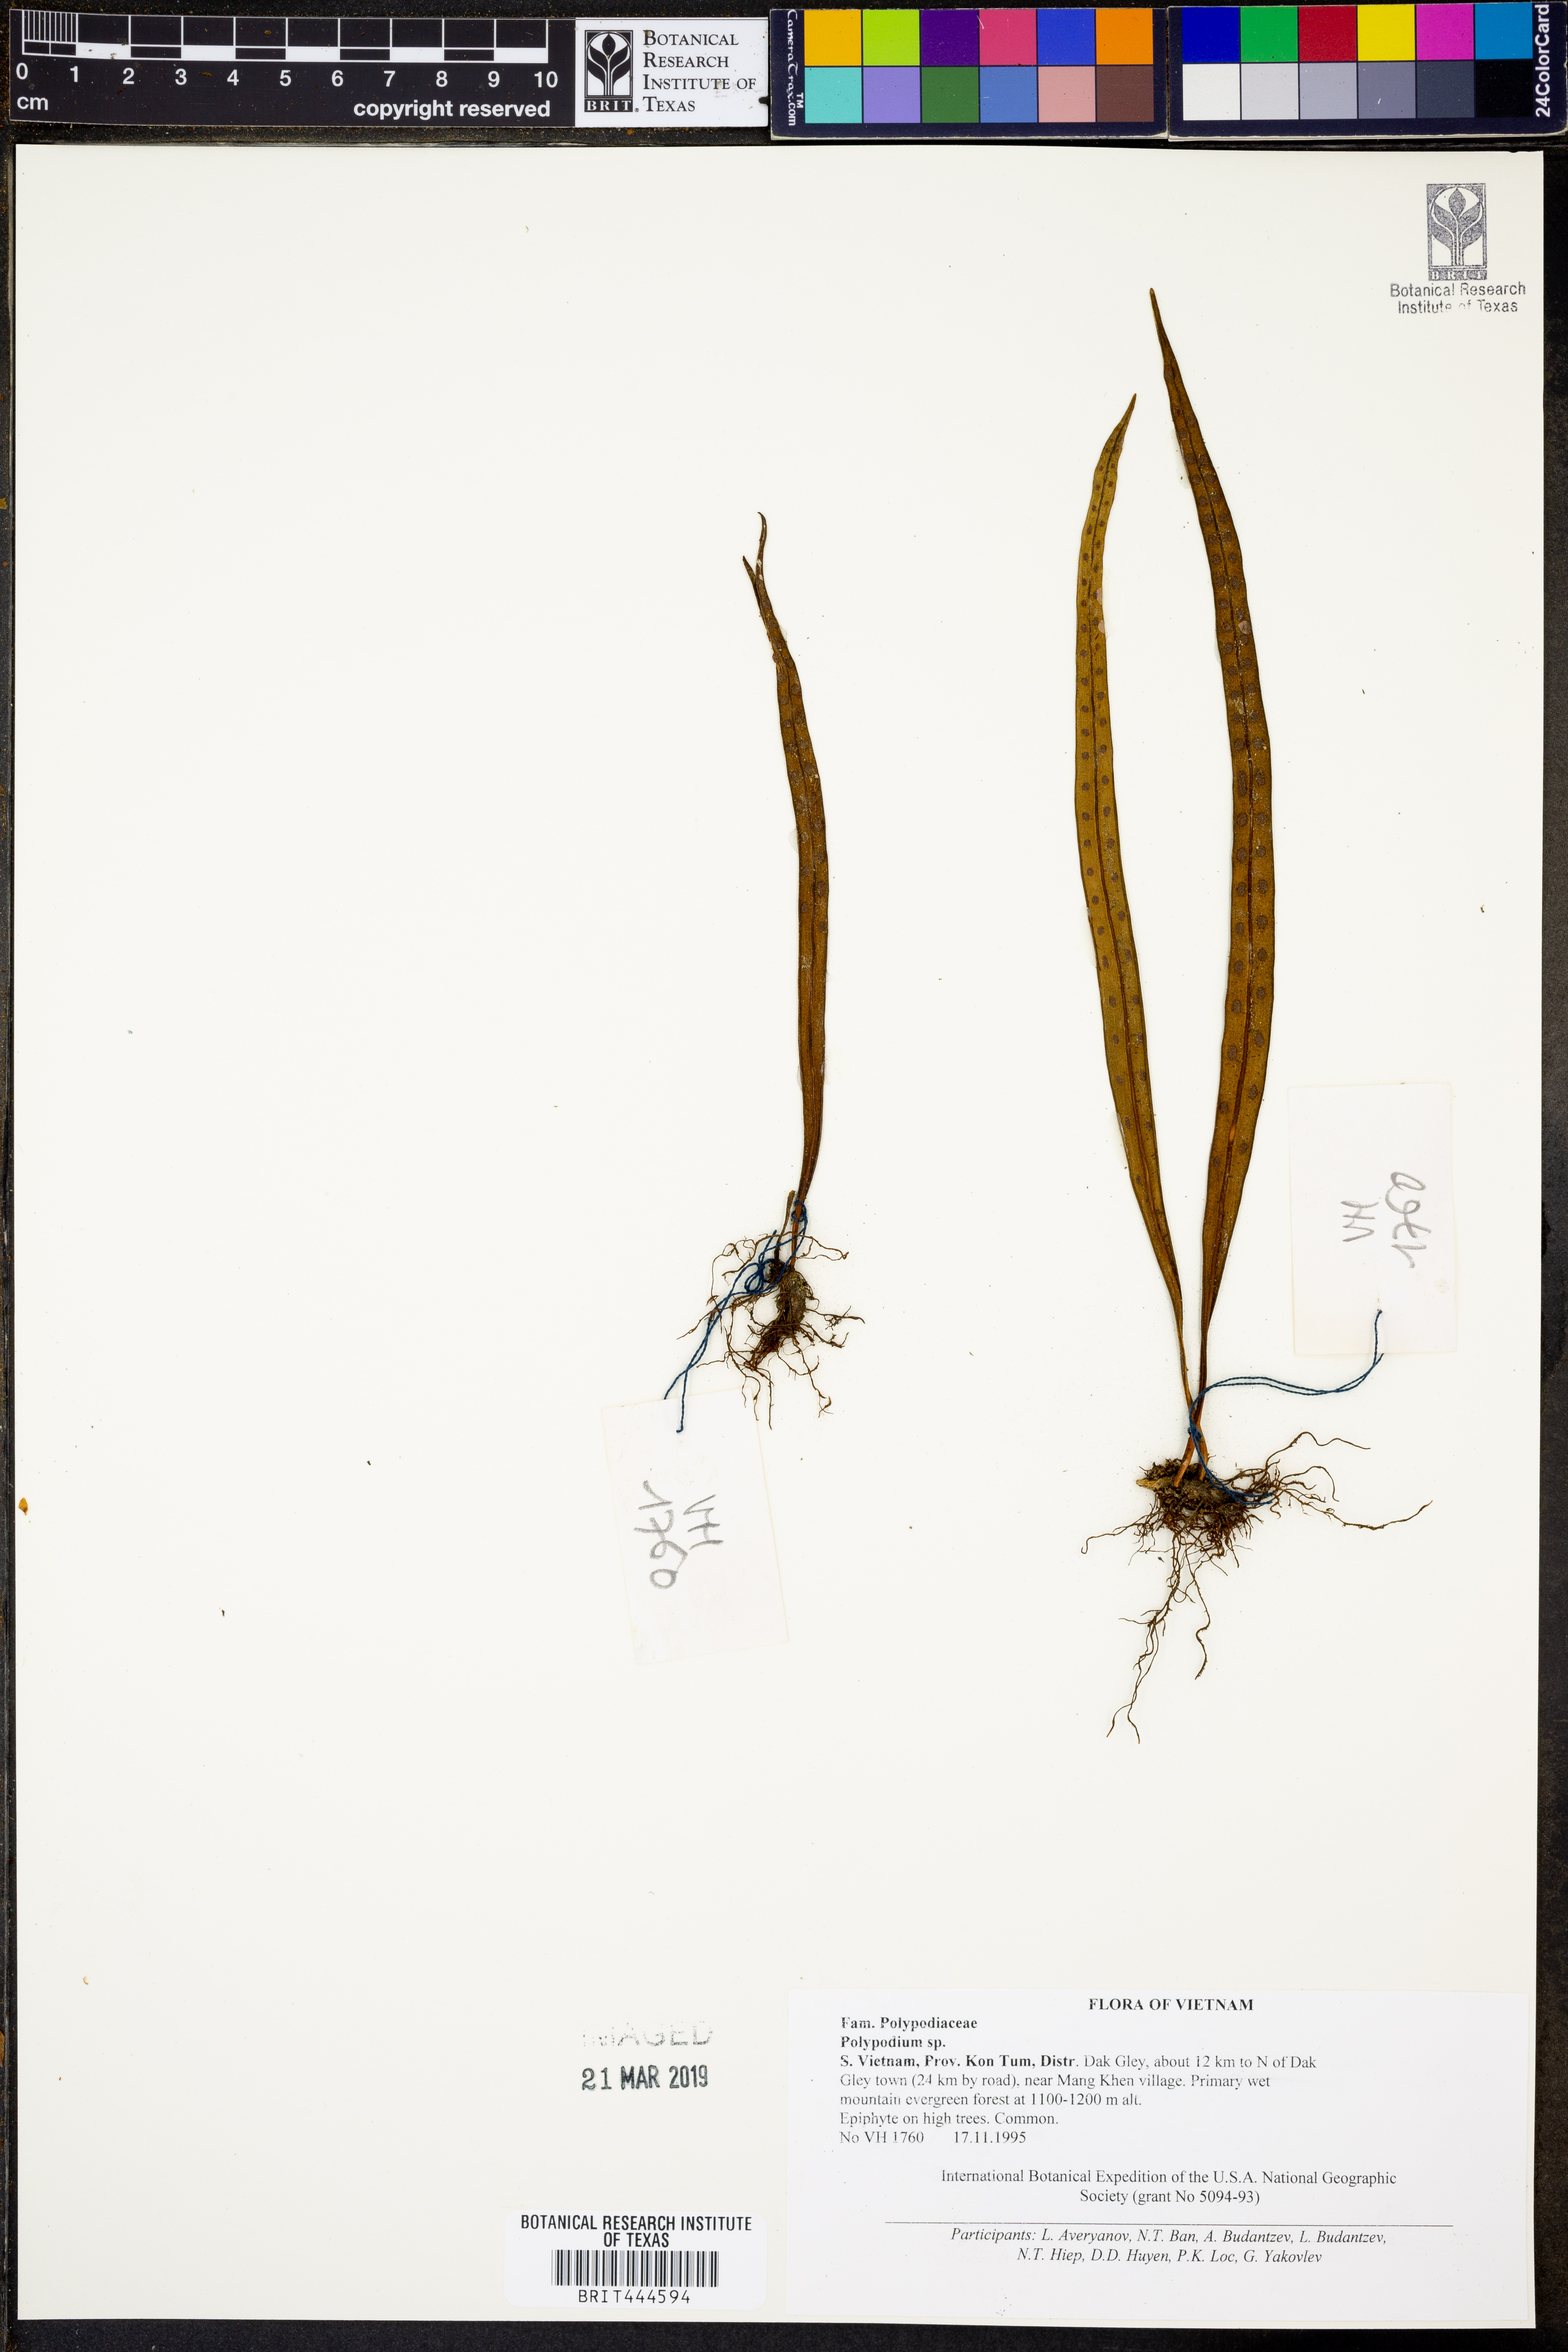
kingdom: Plantae
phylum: Tracheophyta
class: Polypodiopsida
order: Polypodiales
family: Polypodiaceae
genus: Polypodium
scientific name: Polypodium
